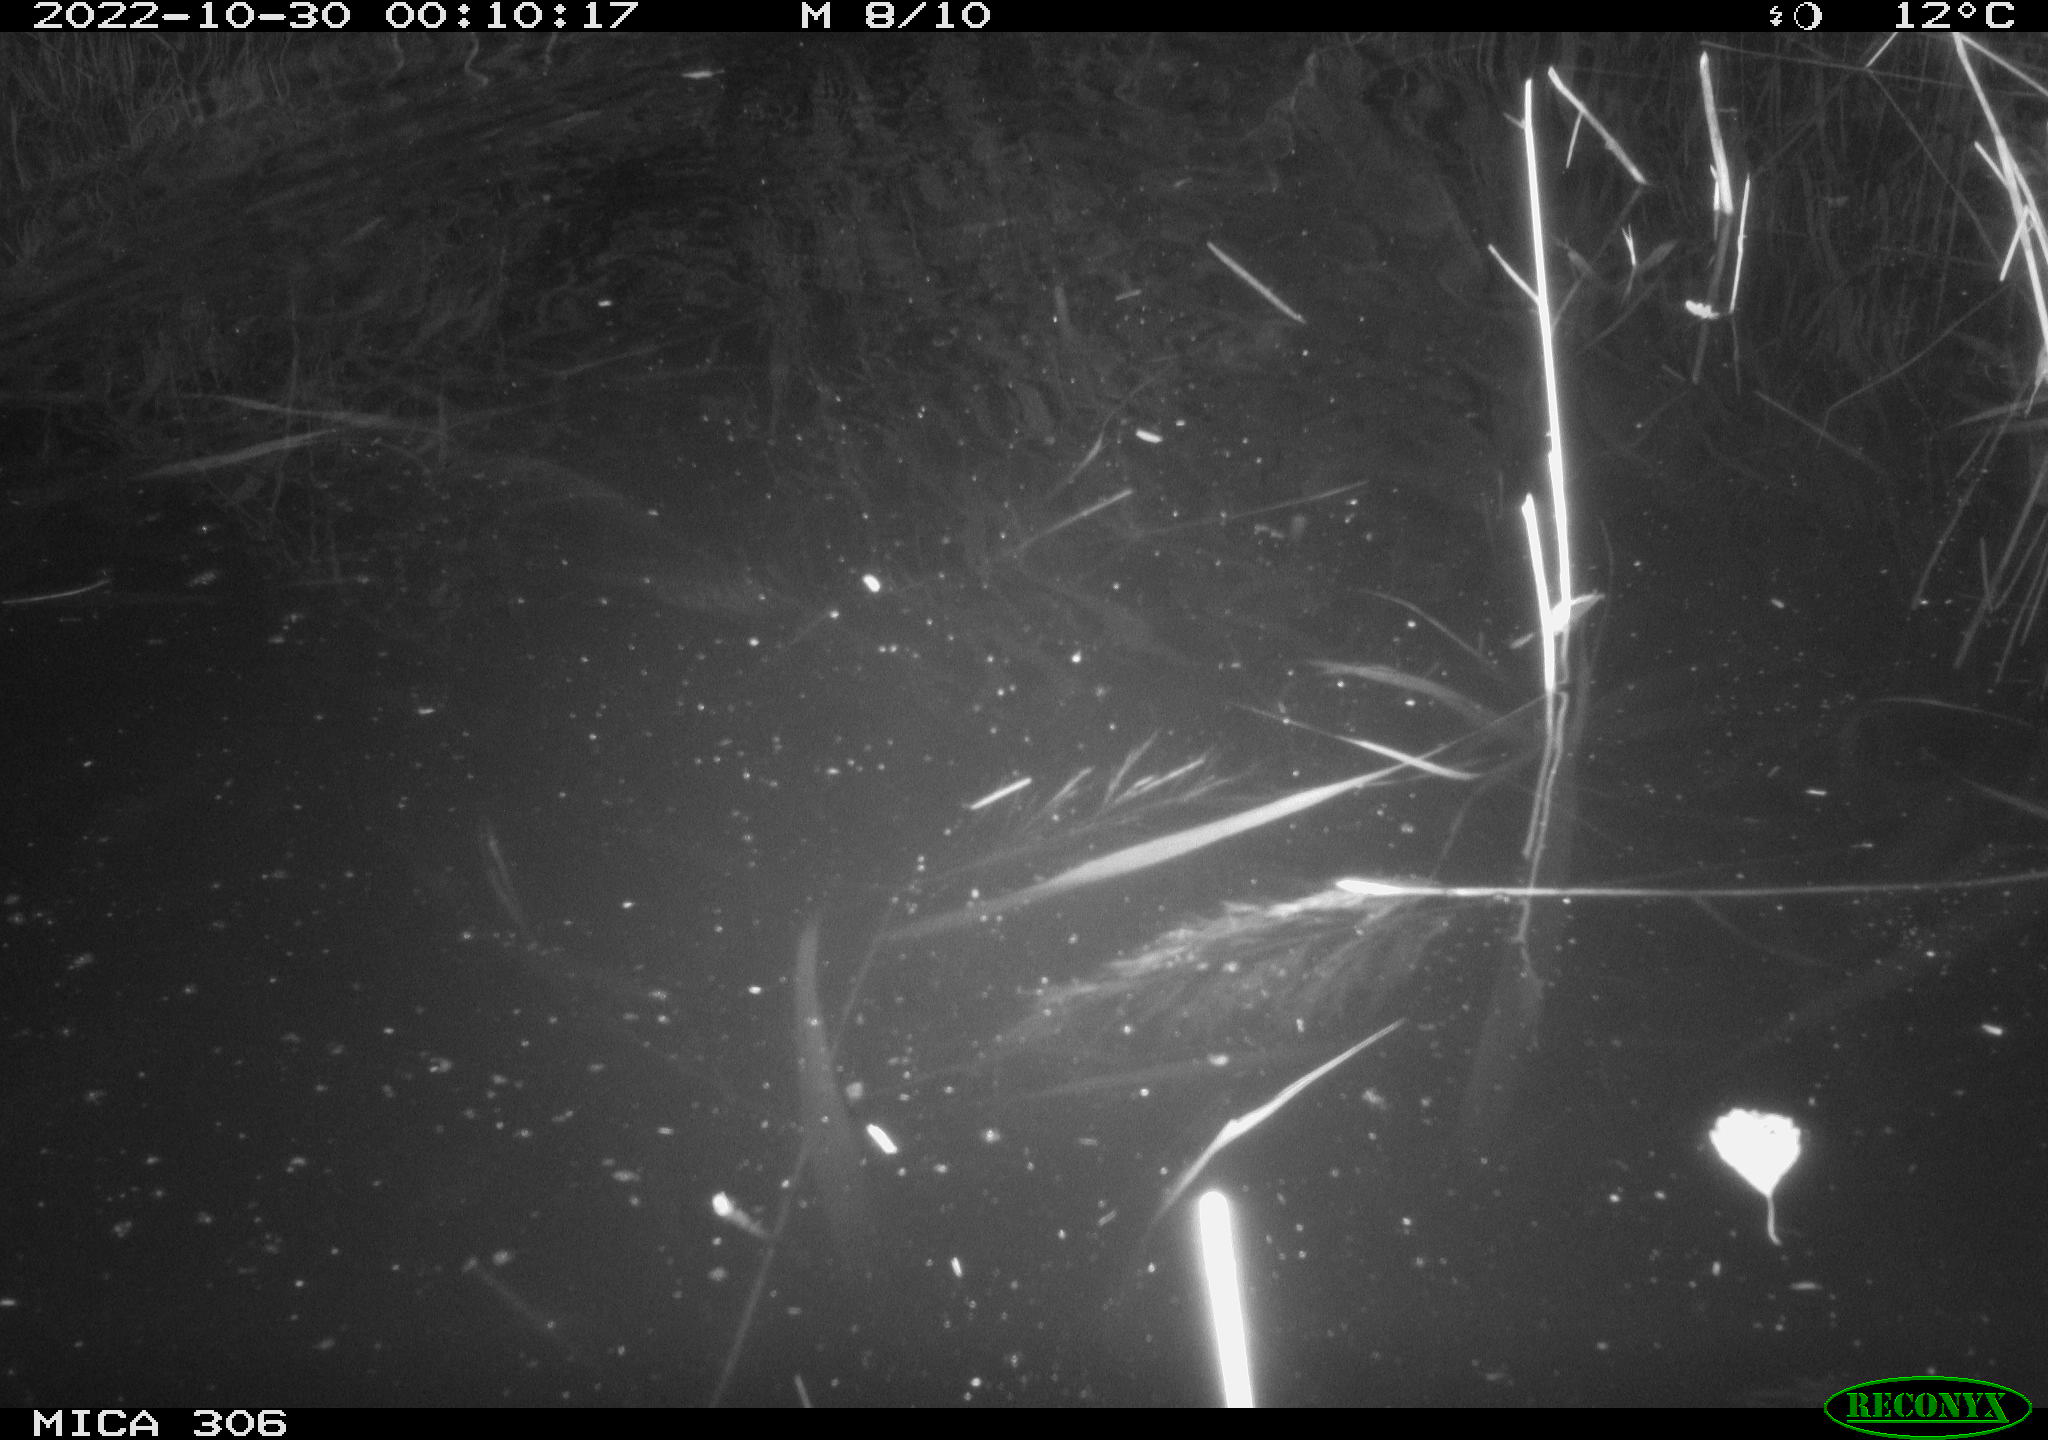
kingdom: Animalia
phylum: Chordata
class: Mammalia
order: Rodentia
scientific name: Rodentia
